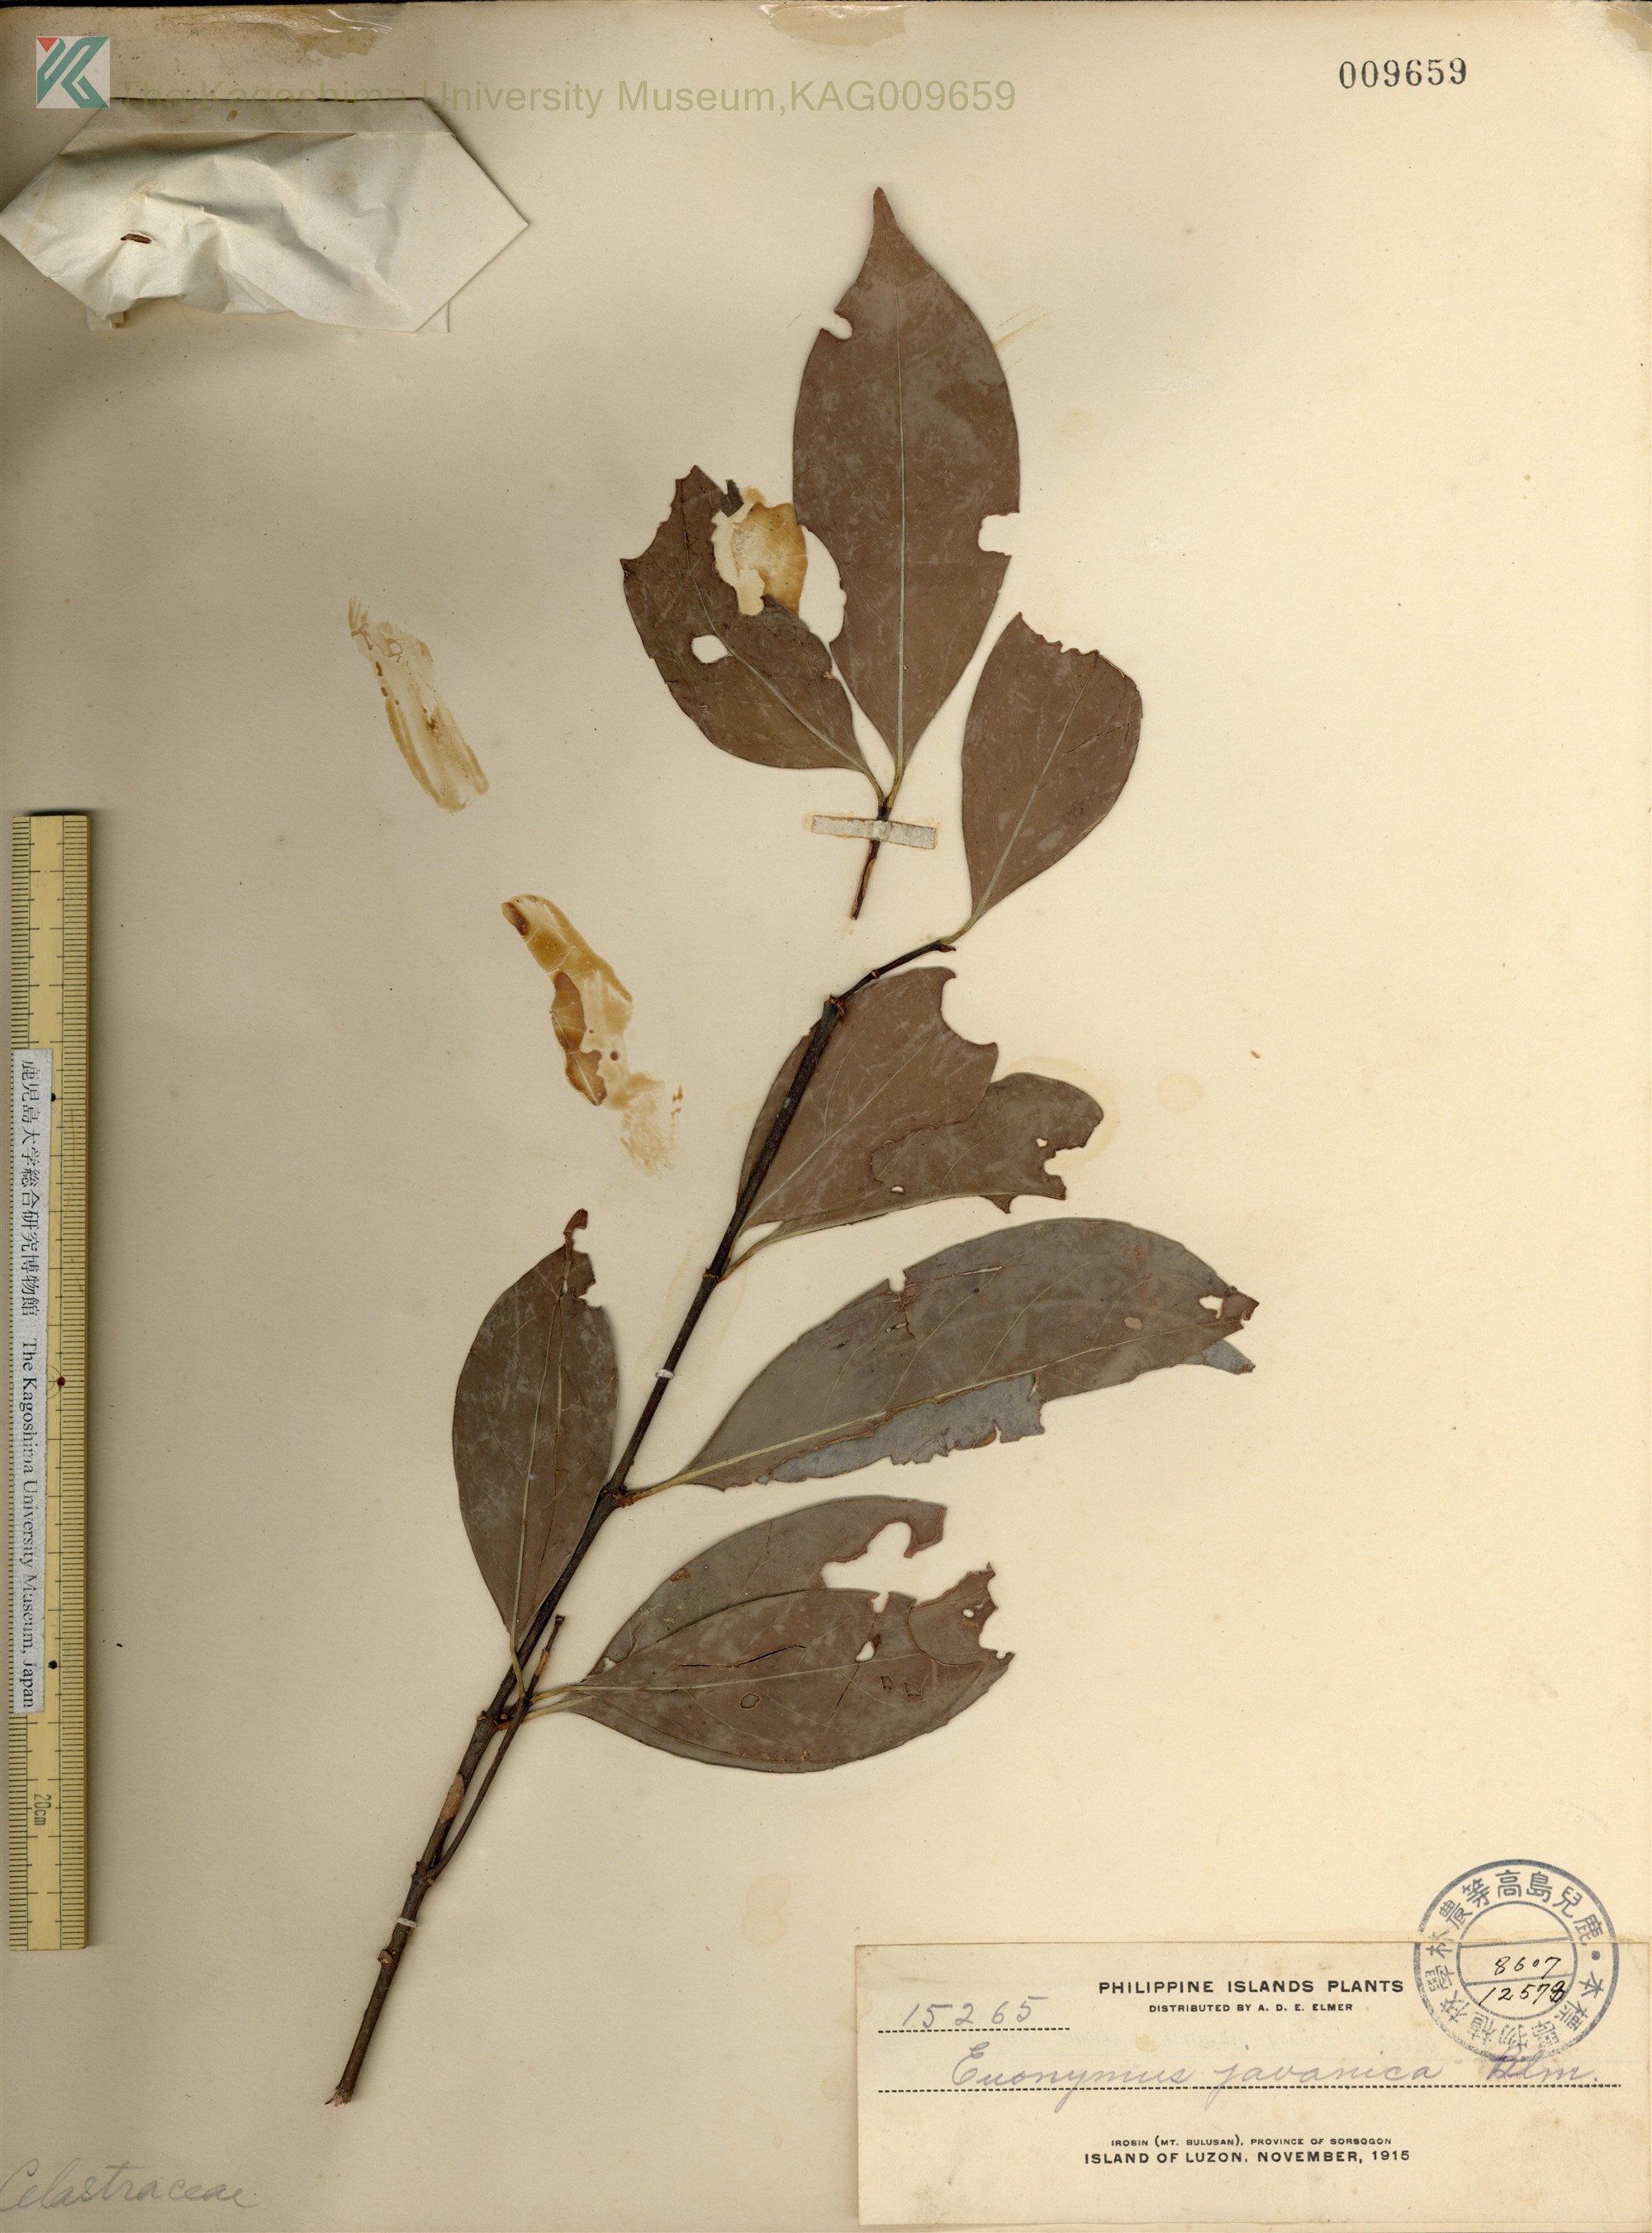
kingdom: Plantae
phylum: Tracheophyta
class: Magnoliopsida
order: Celastrales
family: Celastraceae
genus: Euonymus
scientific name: Euonymus indicus
